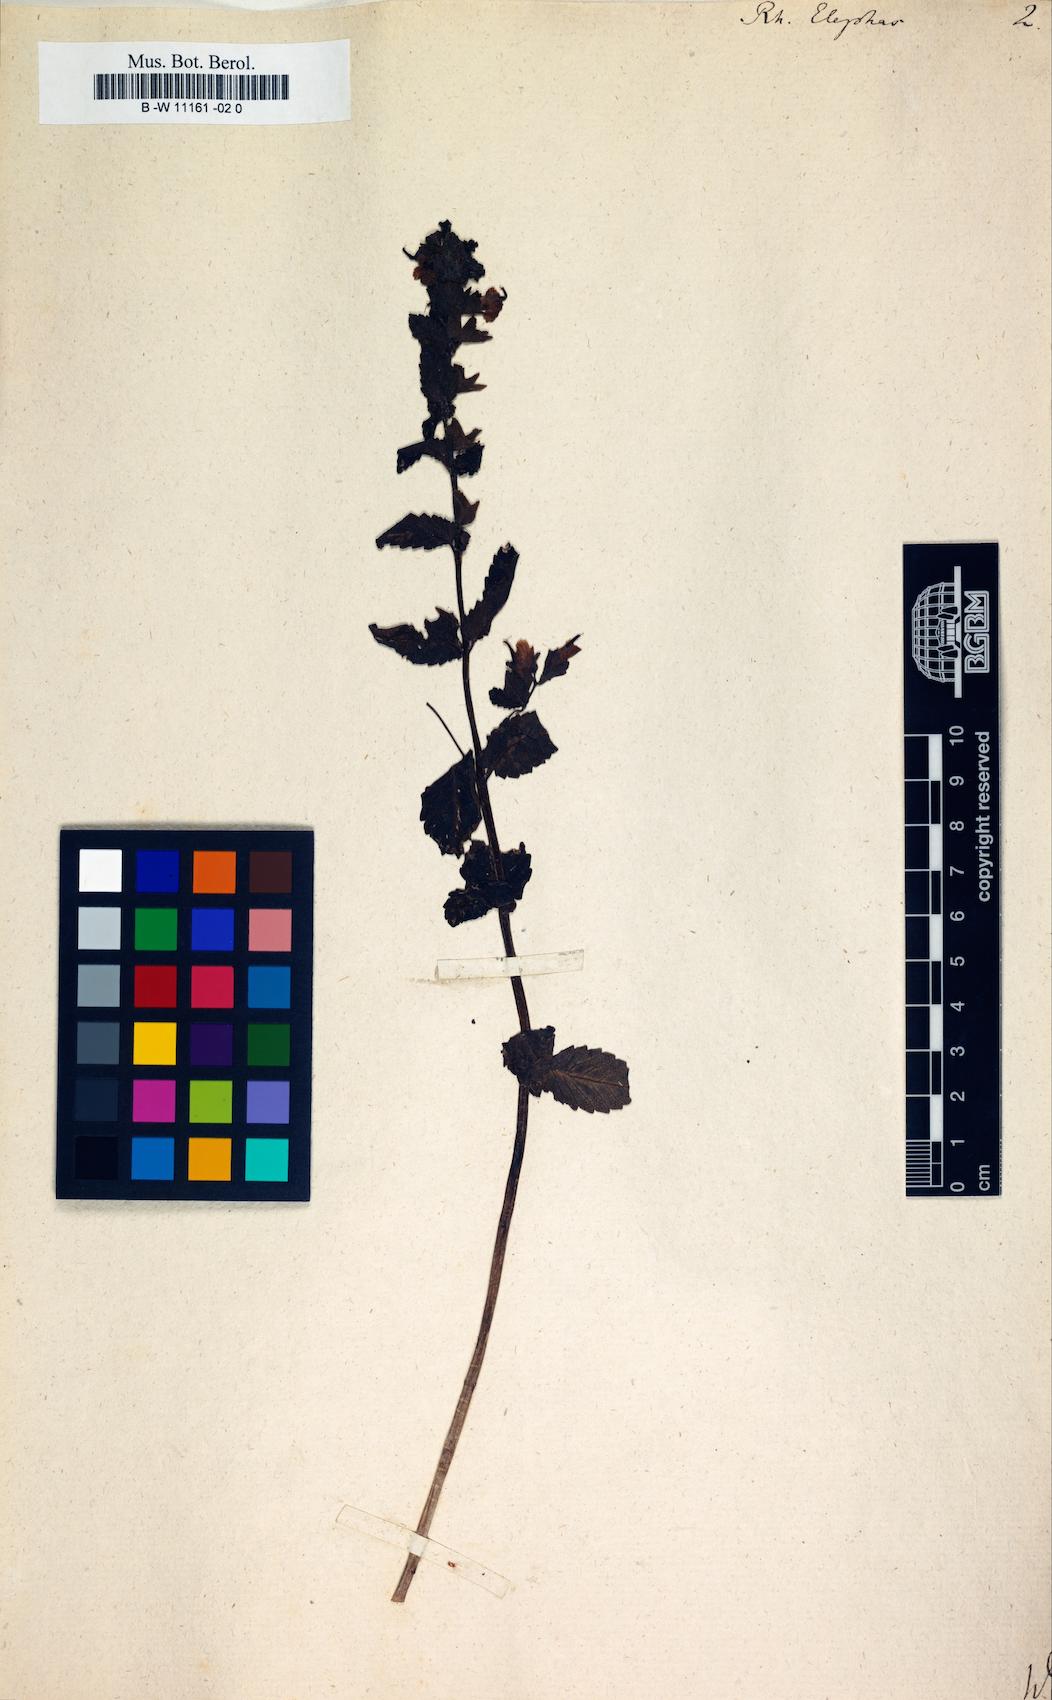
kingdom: Plantae
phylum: Tracheophyta
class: Magnoliopsida
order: Lamiales
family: Orobanchaceae
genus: Rhynchocorys
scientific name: Rhynchocorys elephas
